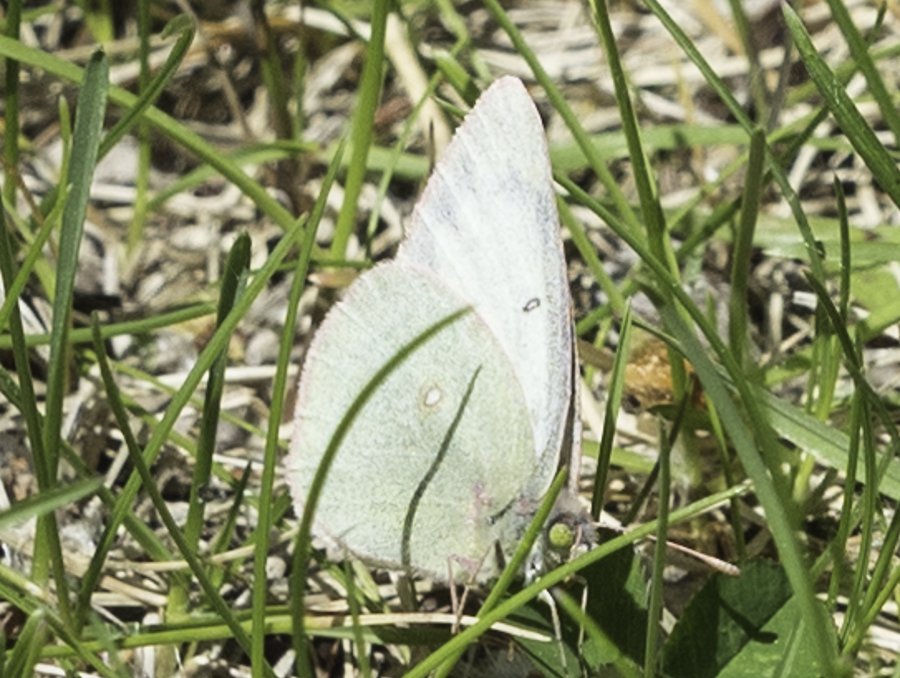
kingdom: Animalia
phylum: Arthropoda
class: Insecta
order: Lepidoptera
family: Pieridae
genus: Colias
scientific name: Colias philodice
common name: Clouded Sulphur
